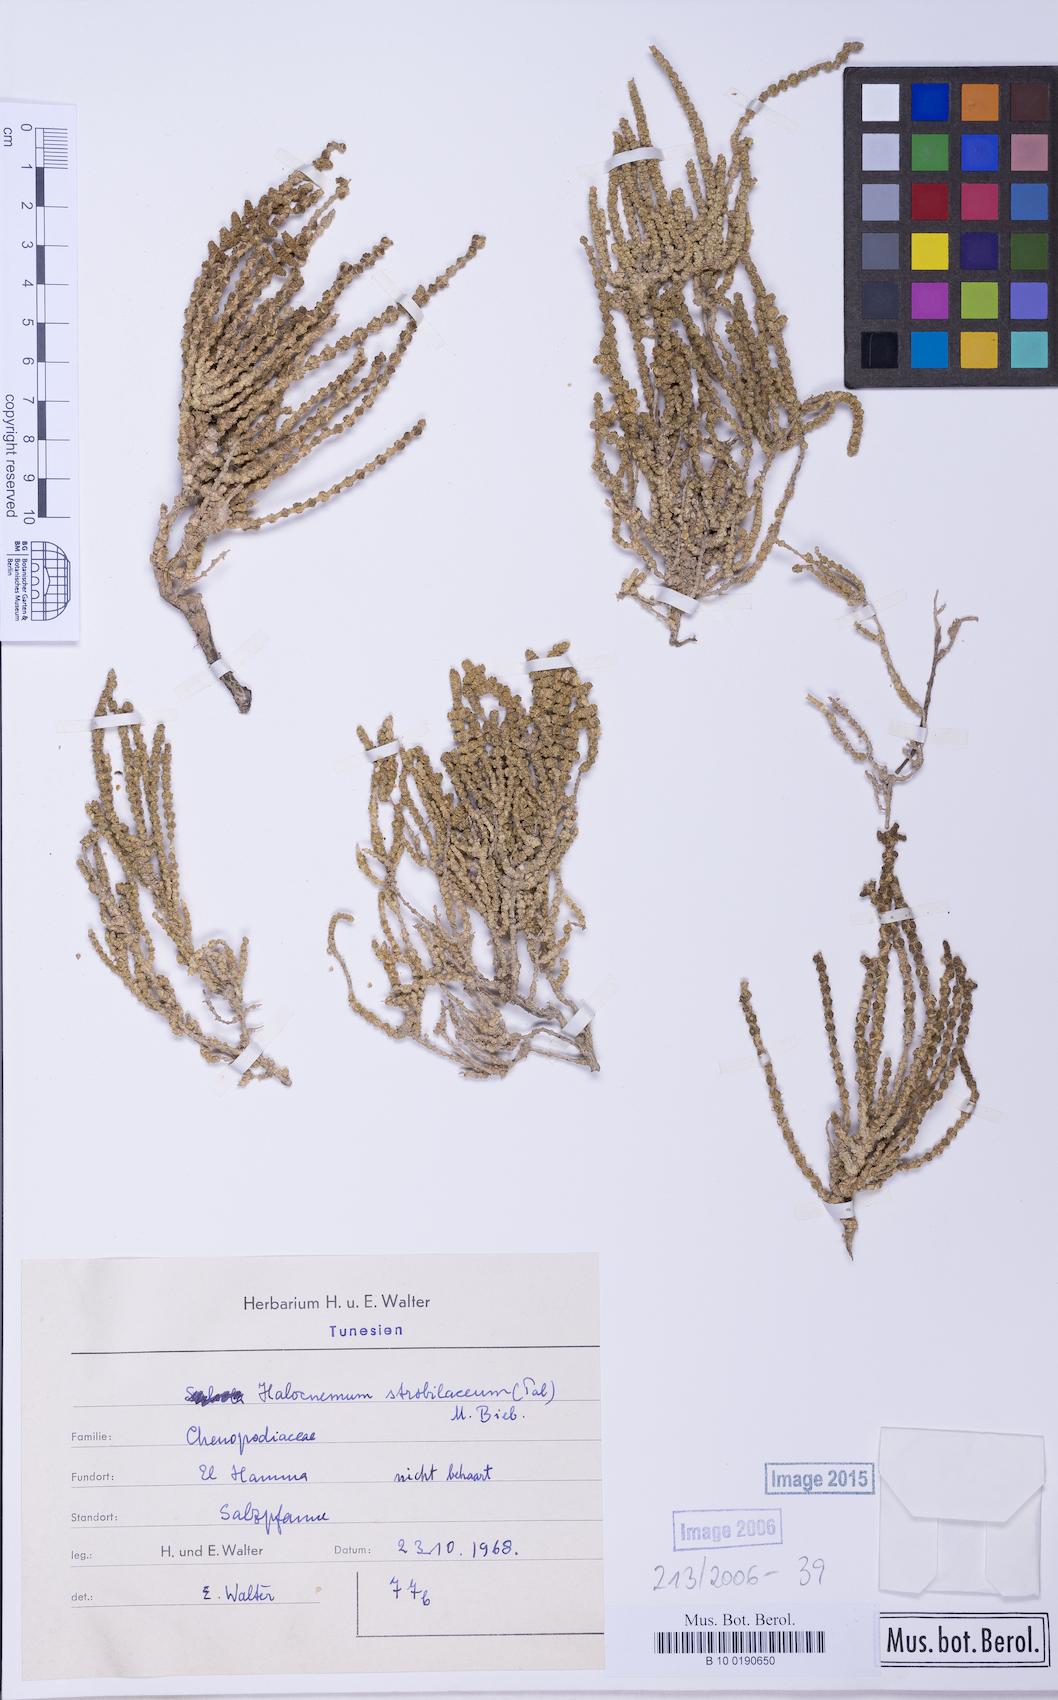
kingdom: Plantae
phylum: Tracheophyta
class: Magnoliopsida
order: Caryophyllales
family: Amaranthaceae
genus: Halocnemum
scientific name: Halocnemum strobilaceum
